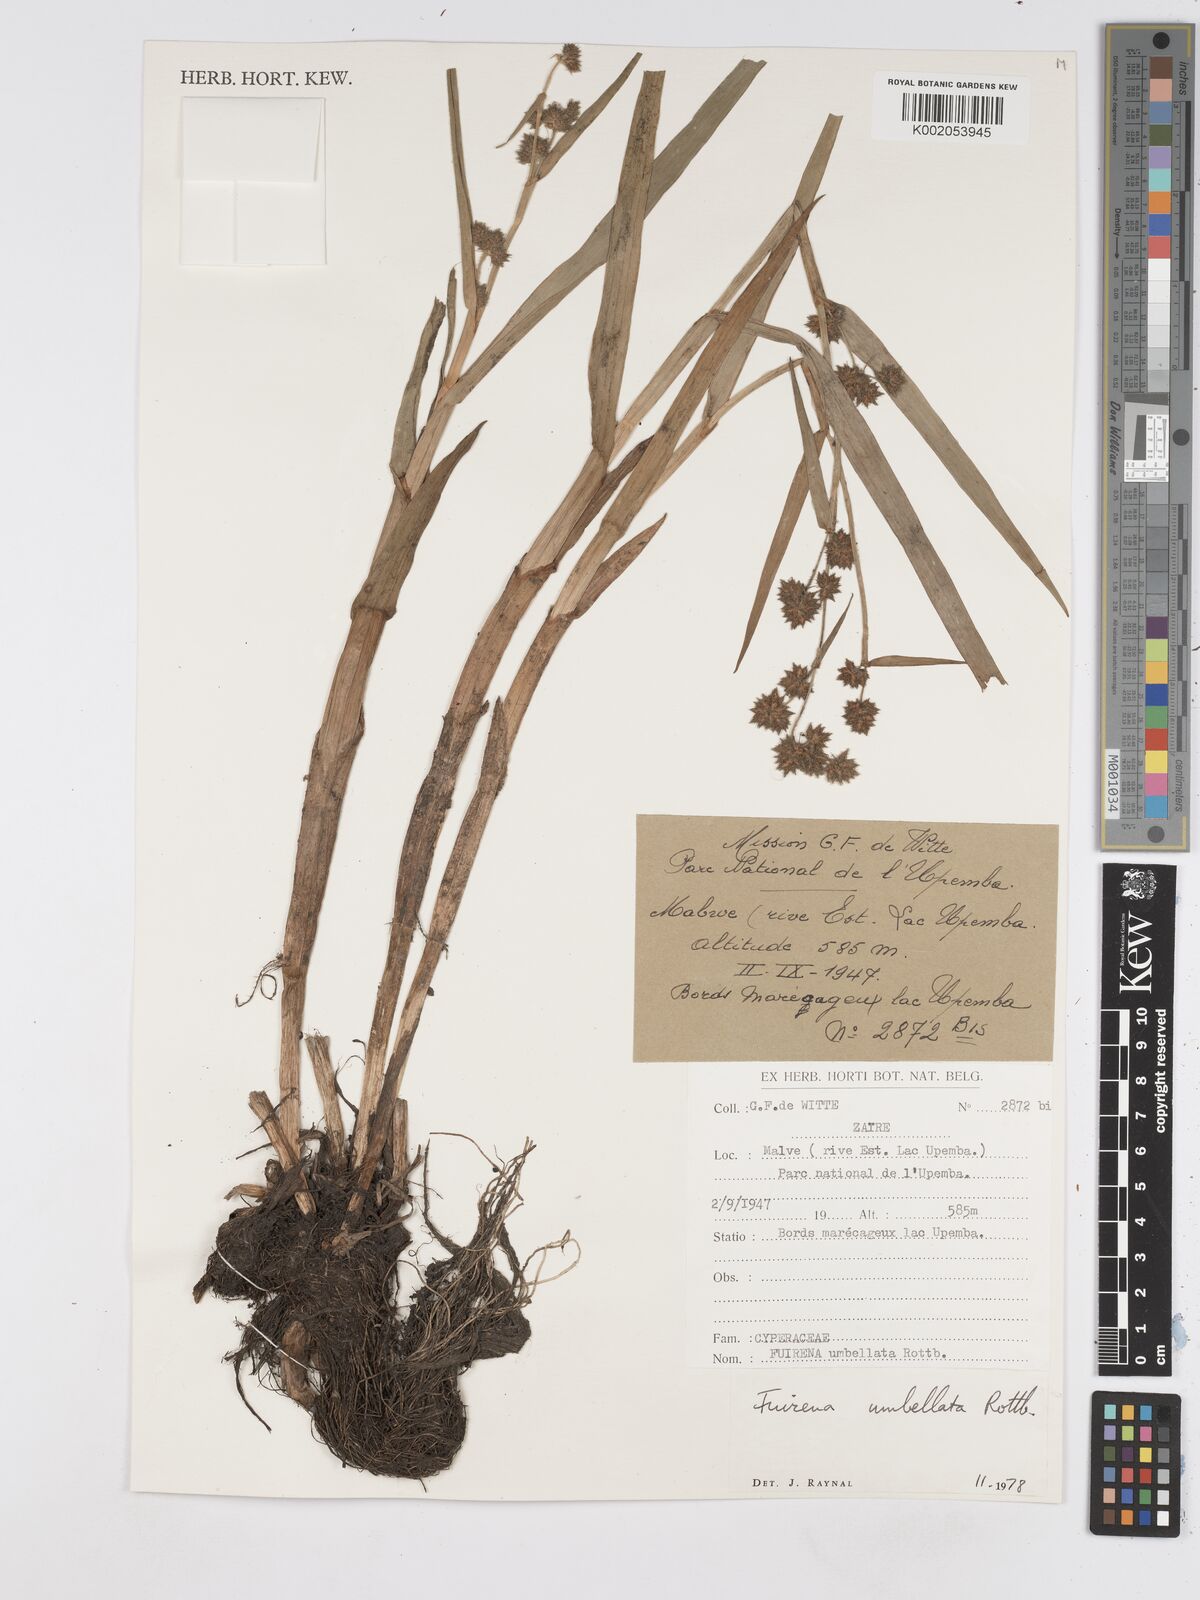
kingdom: Plantae
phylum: Tracheophyta
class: Liliopsida
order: Poales
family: Cyperaceae
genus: Fuirena
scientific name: Fuirena umbellata
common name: Yefen
